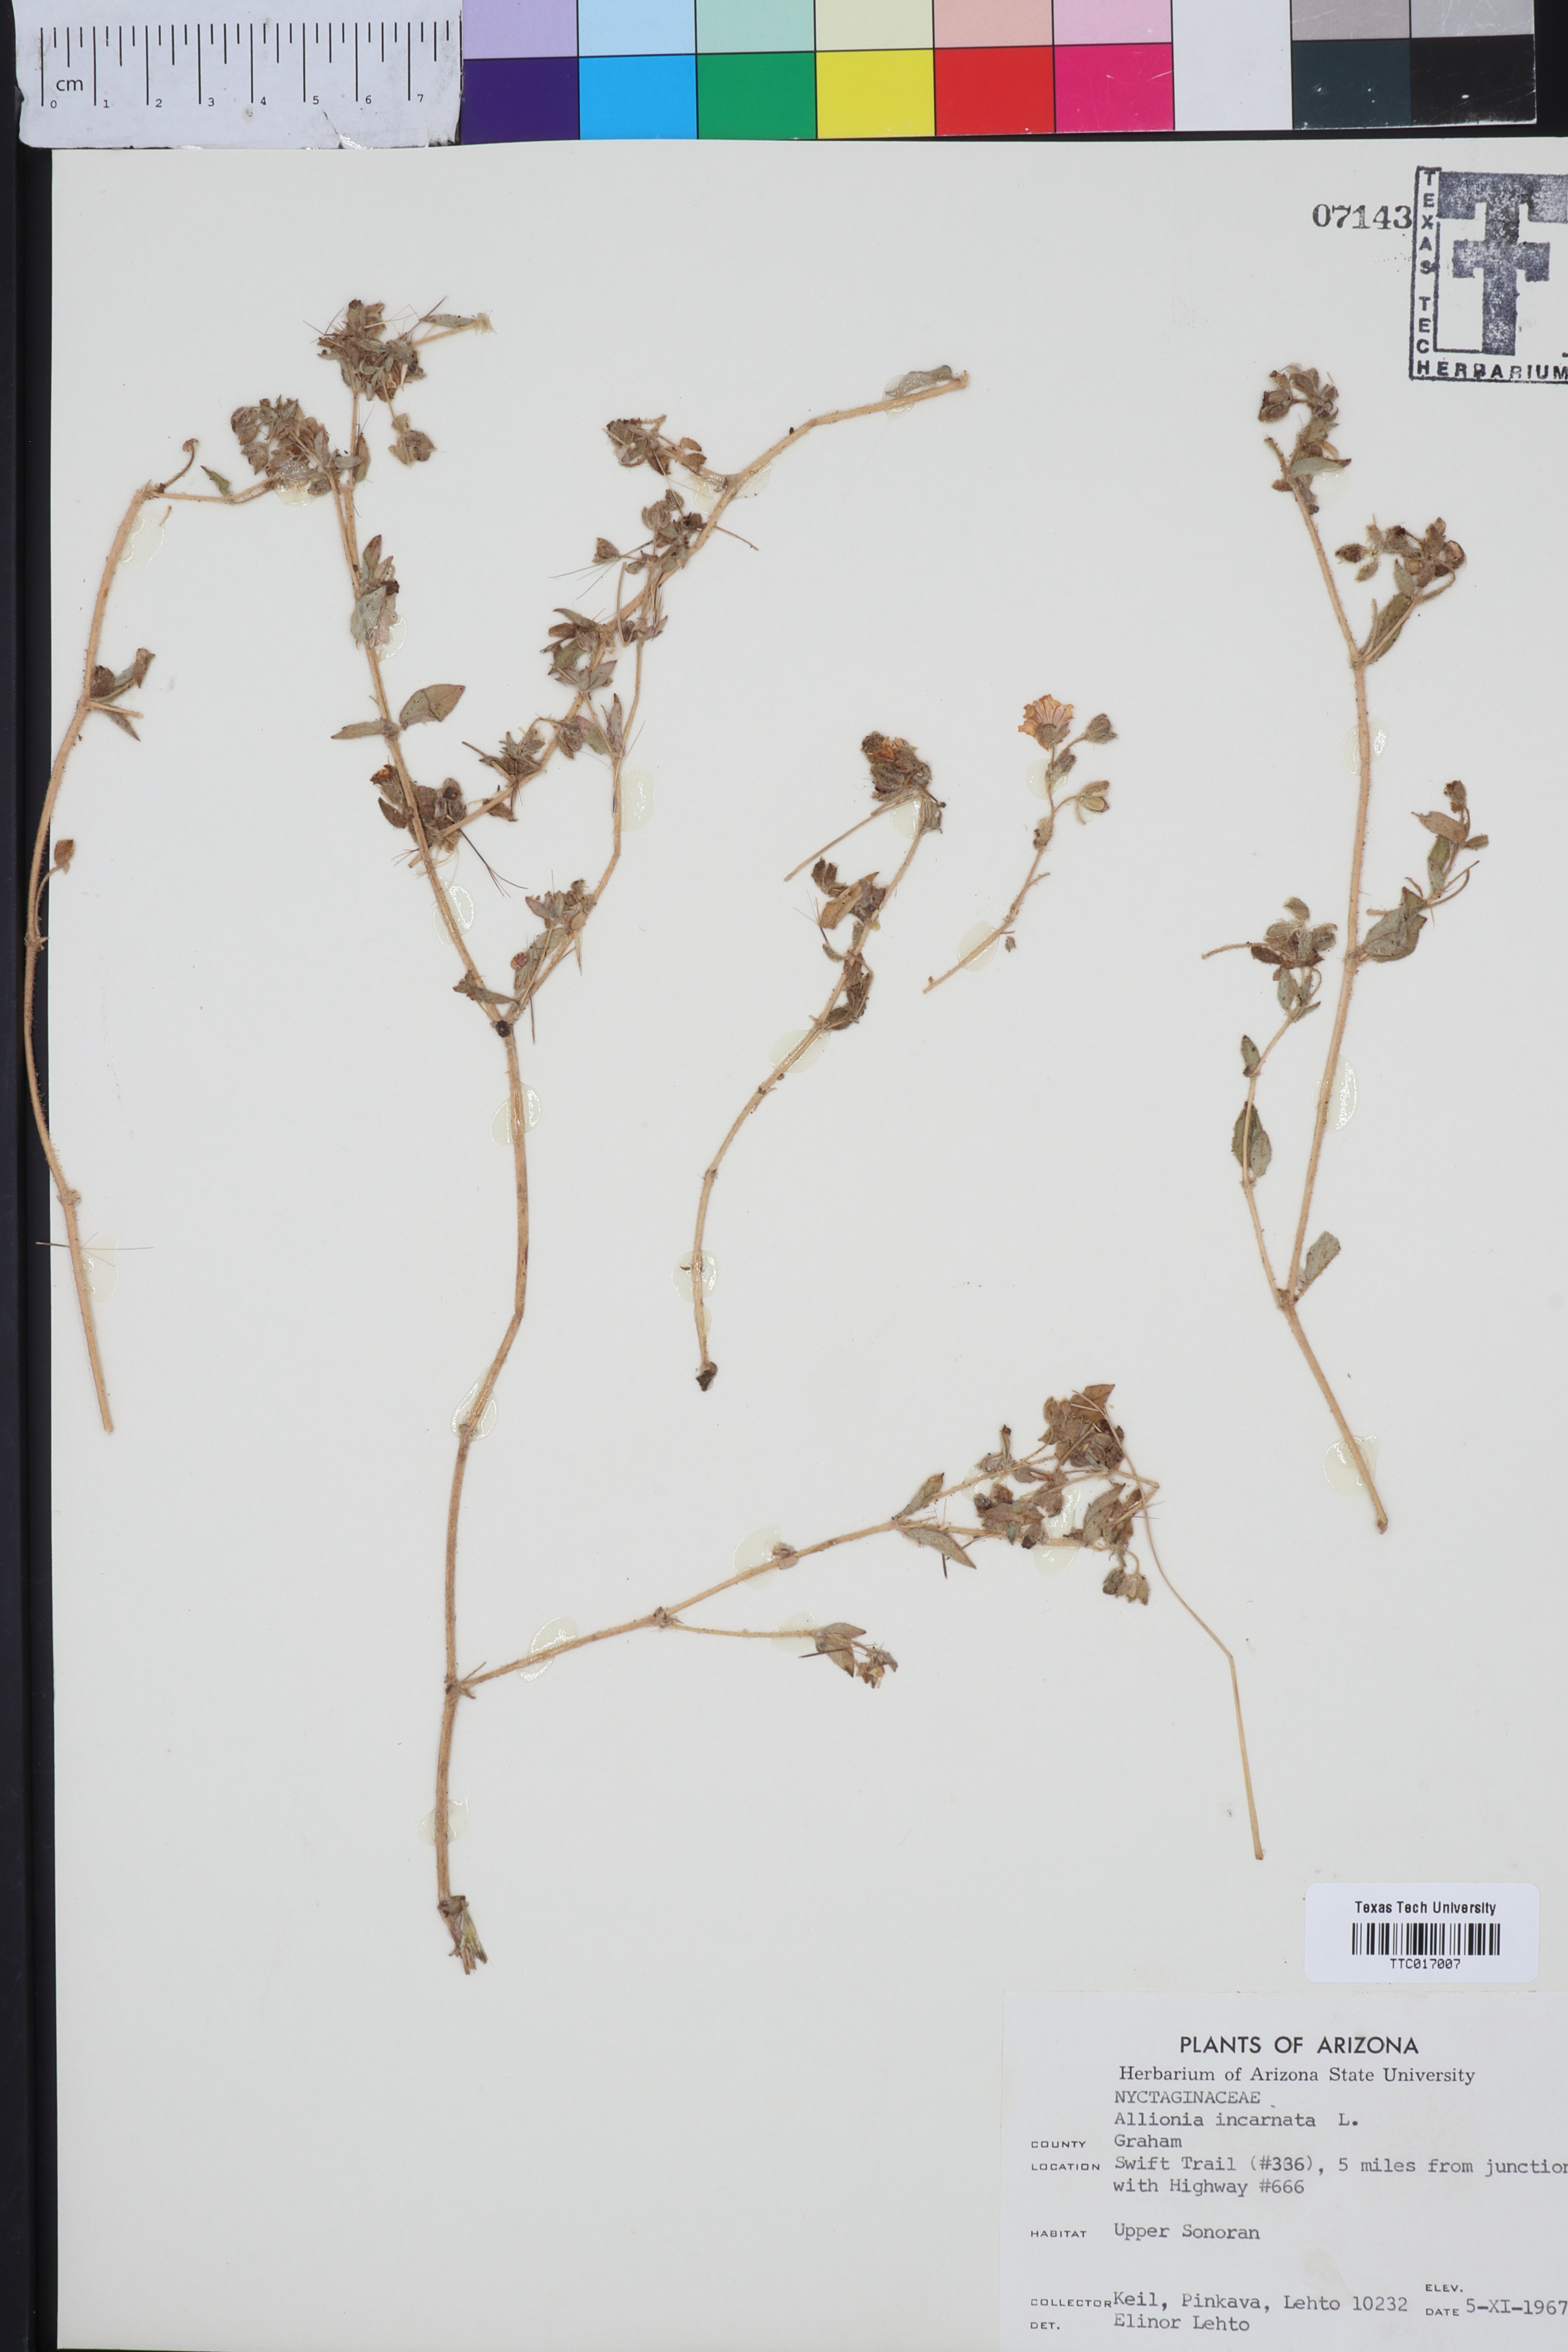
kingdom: Plantae
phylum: Tracheophyta
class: Magnoliopsida
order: Caryophyllales
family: Nyctaginaceae
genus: Allionia
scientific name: Allionia incarnata
